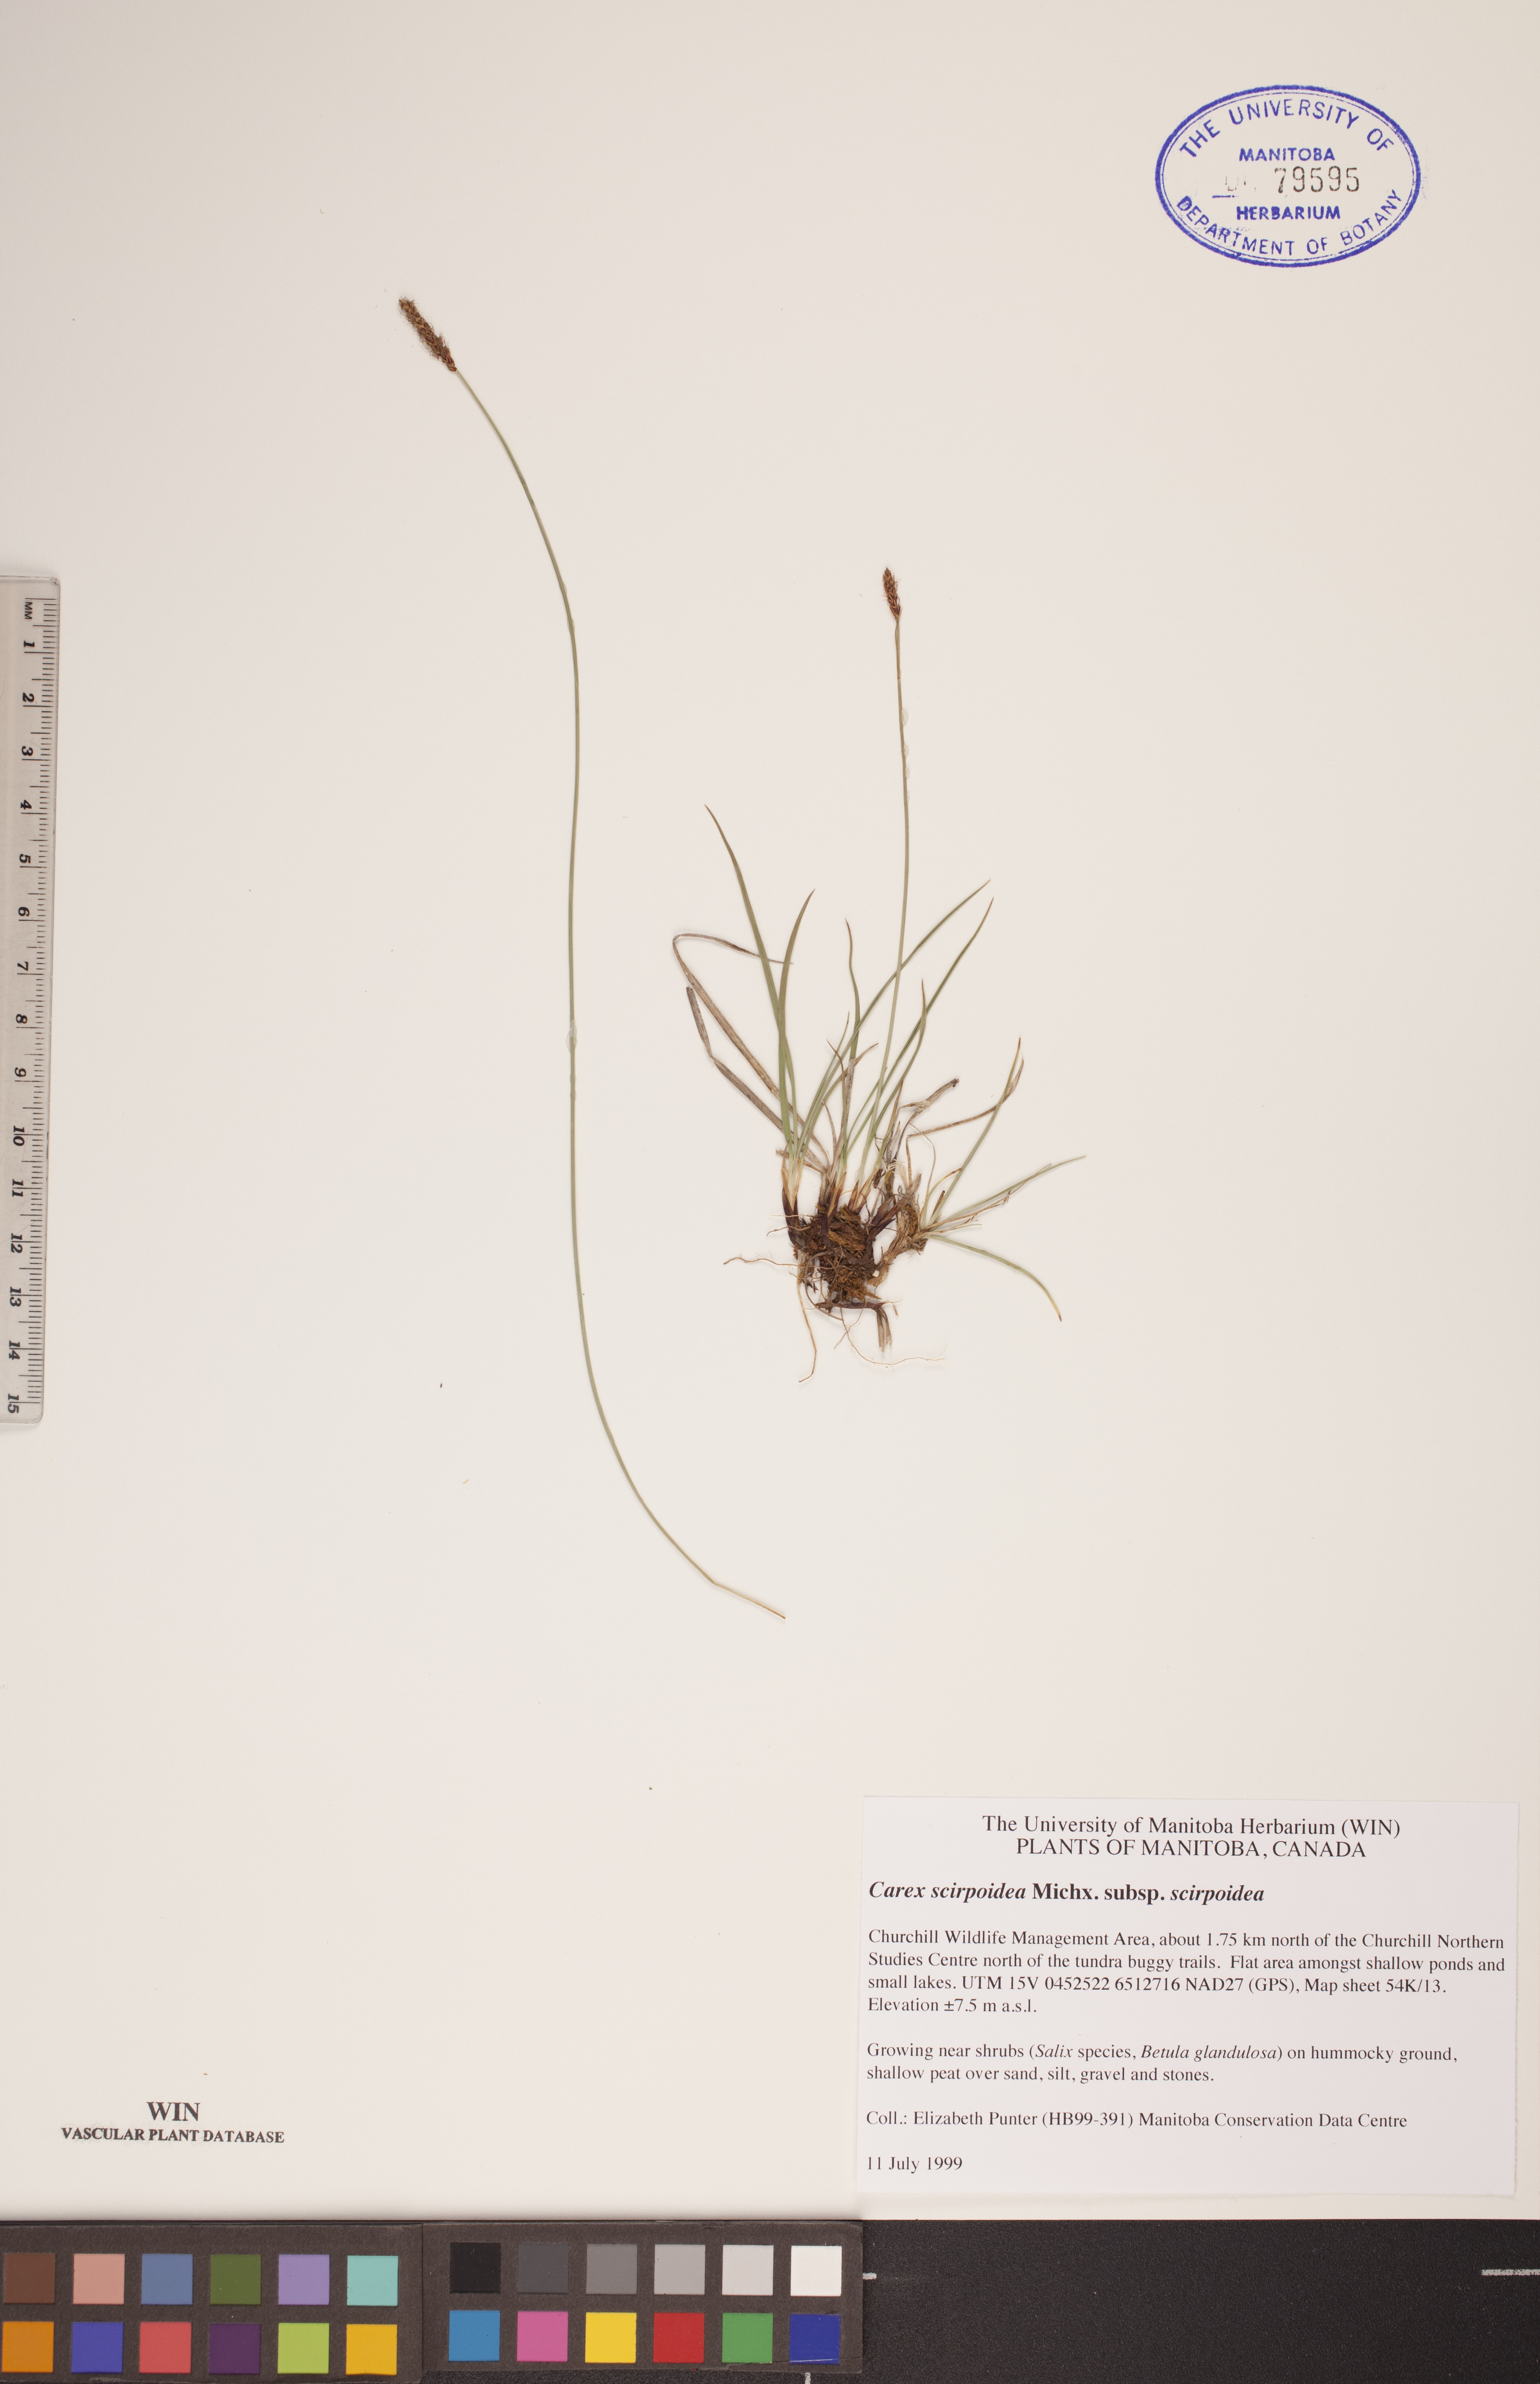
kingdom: Plantae
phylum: Tracheophyta
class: Liliopsida
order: Poales
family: Cyperaceae
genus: Carex
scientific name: Carex scirpoidea
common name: Canada single-spike sedge
